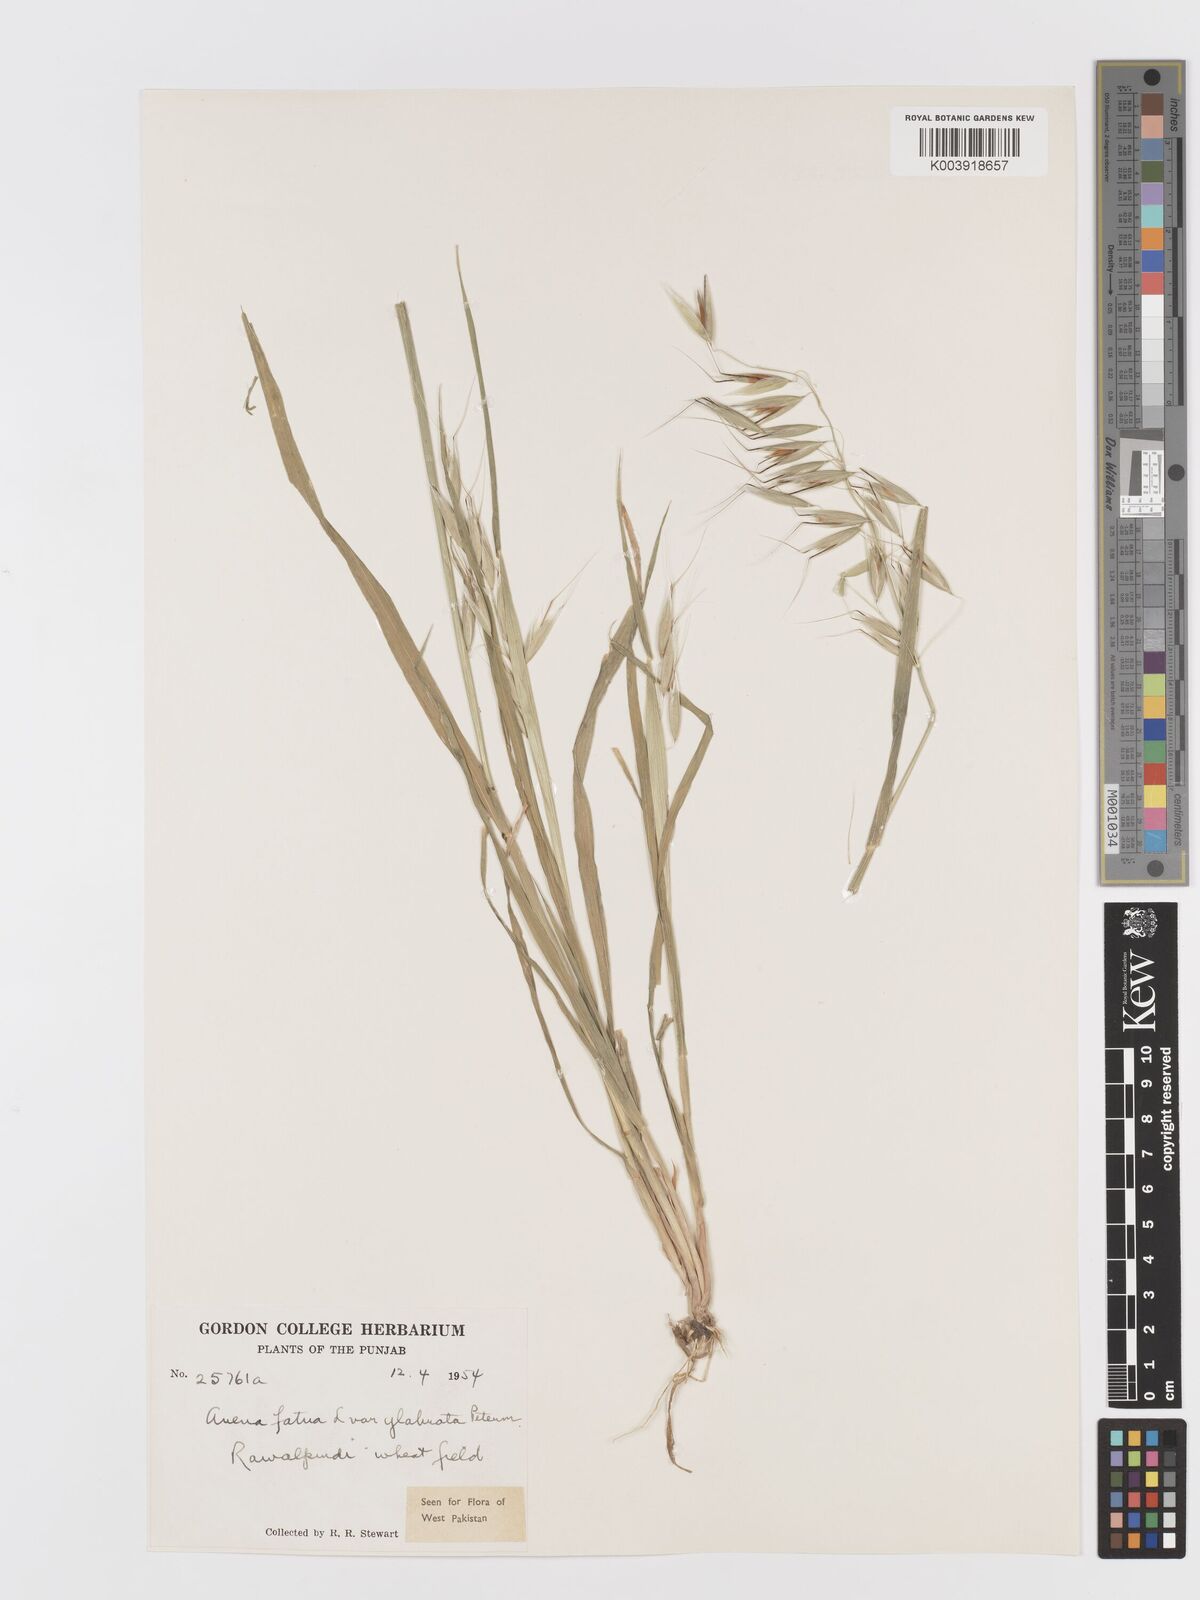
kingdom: Plantae
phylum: Tracheophyta
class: Liliopsida
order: Poales
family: Poaceae
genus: Avena
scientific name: Avena fatua
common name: Wild oat
